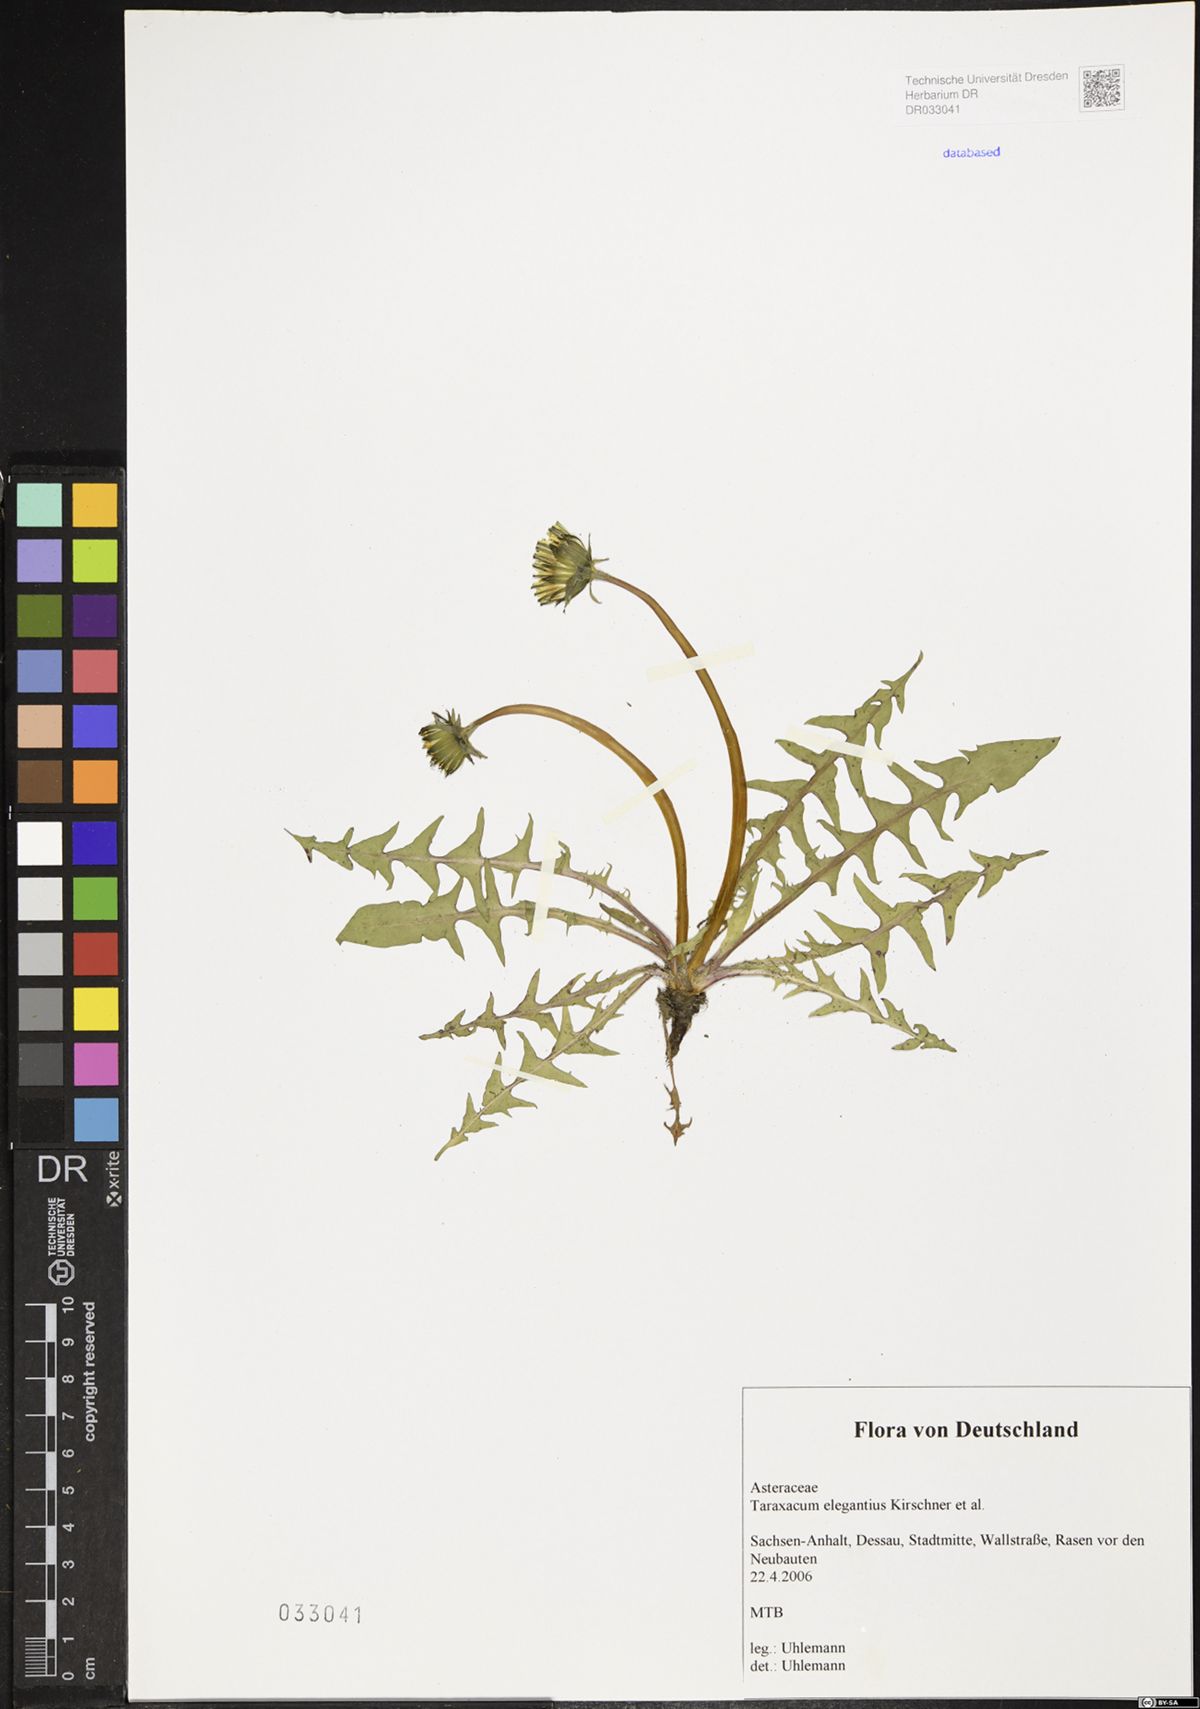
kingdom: Plantae
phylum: Tracheophyta
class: Magnoliopsida
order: Asterales
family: Asteraceae
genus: Taraxacum
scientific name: Taraxacum elegantius
